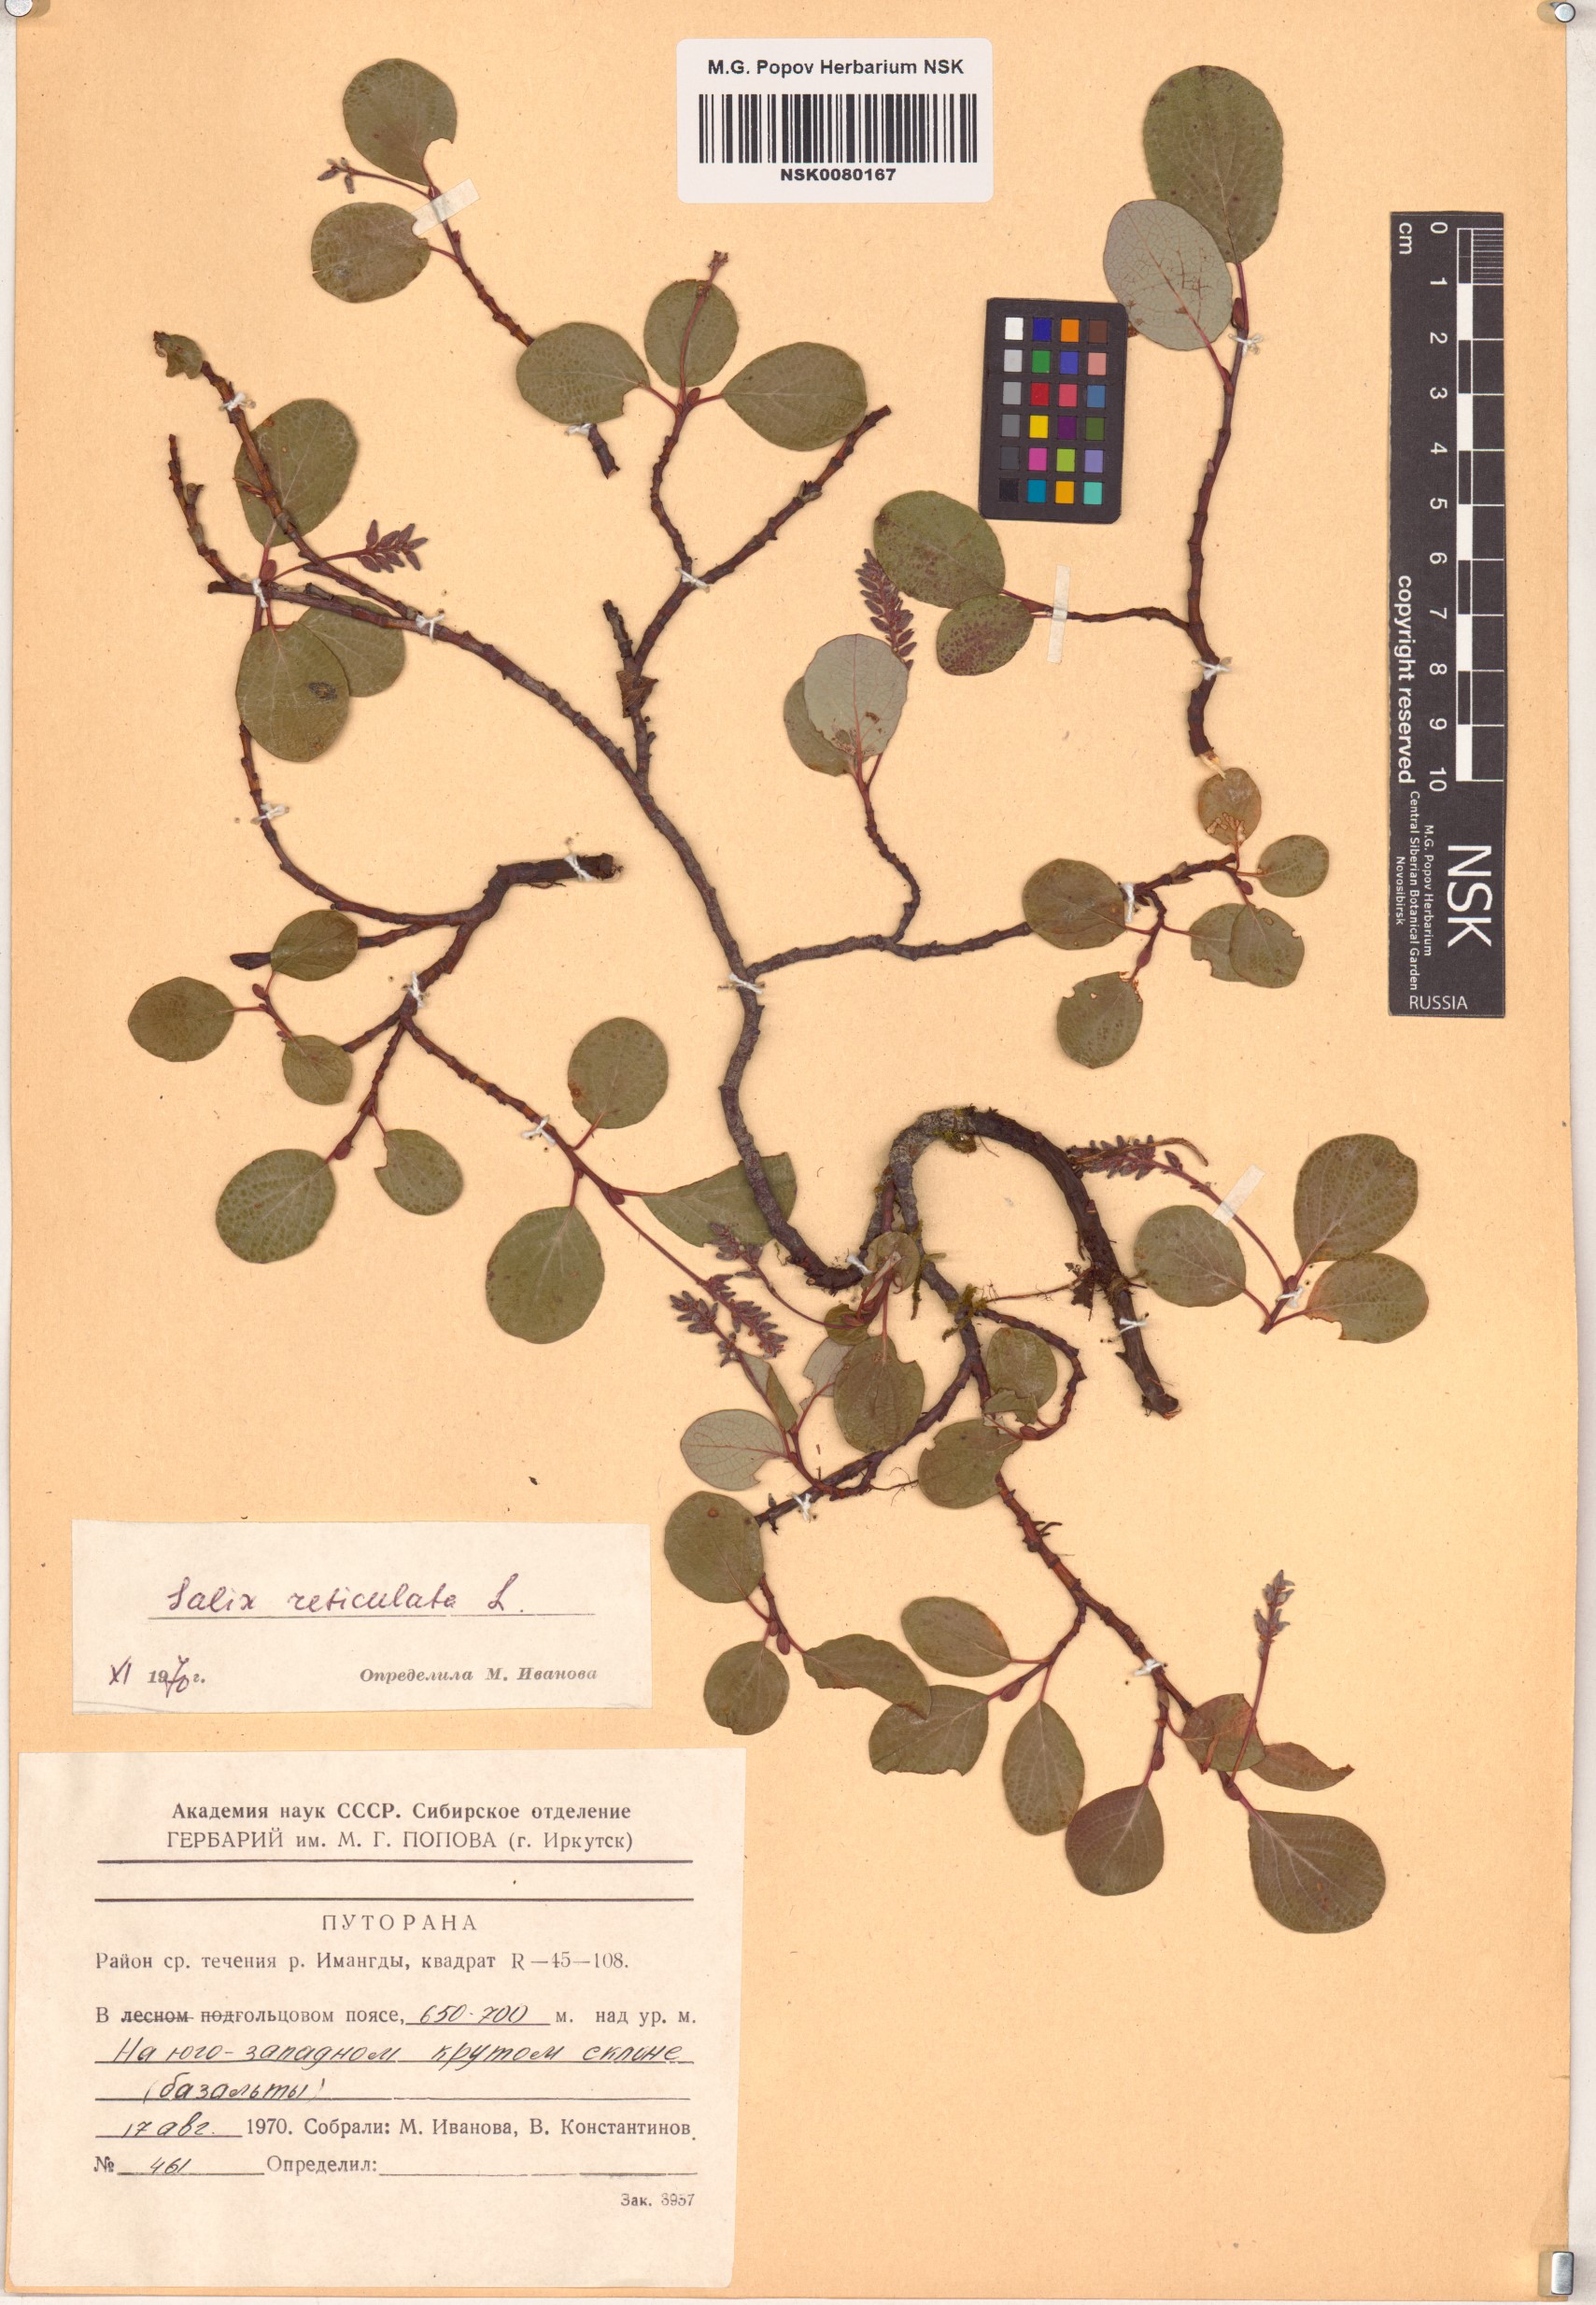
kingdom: Plantae
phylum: Tracheophyta
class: Magnoliopsida
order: Malpighiales
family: Salicaceae
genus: Salix
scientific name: Salix reticulata
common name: Net-leaved willow
